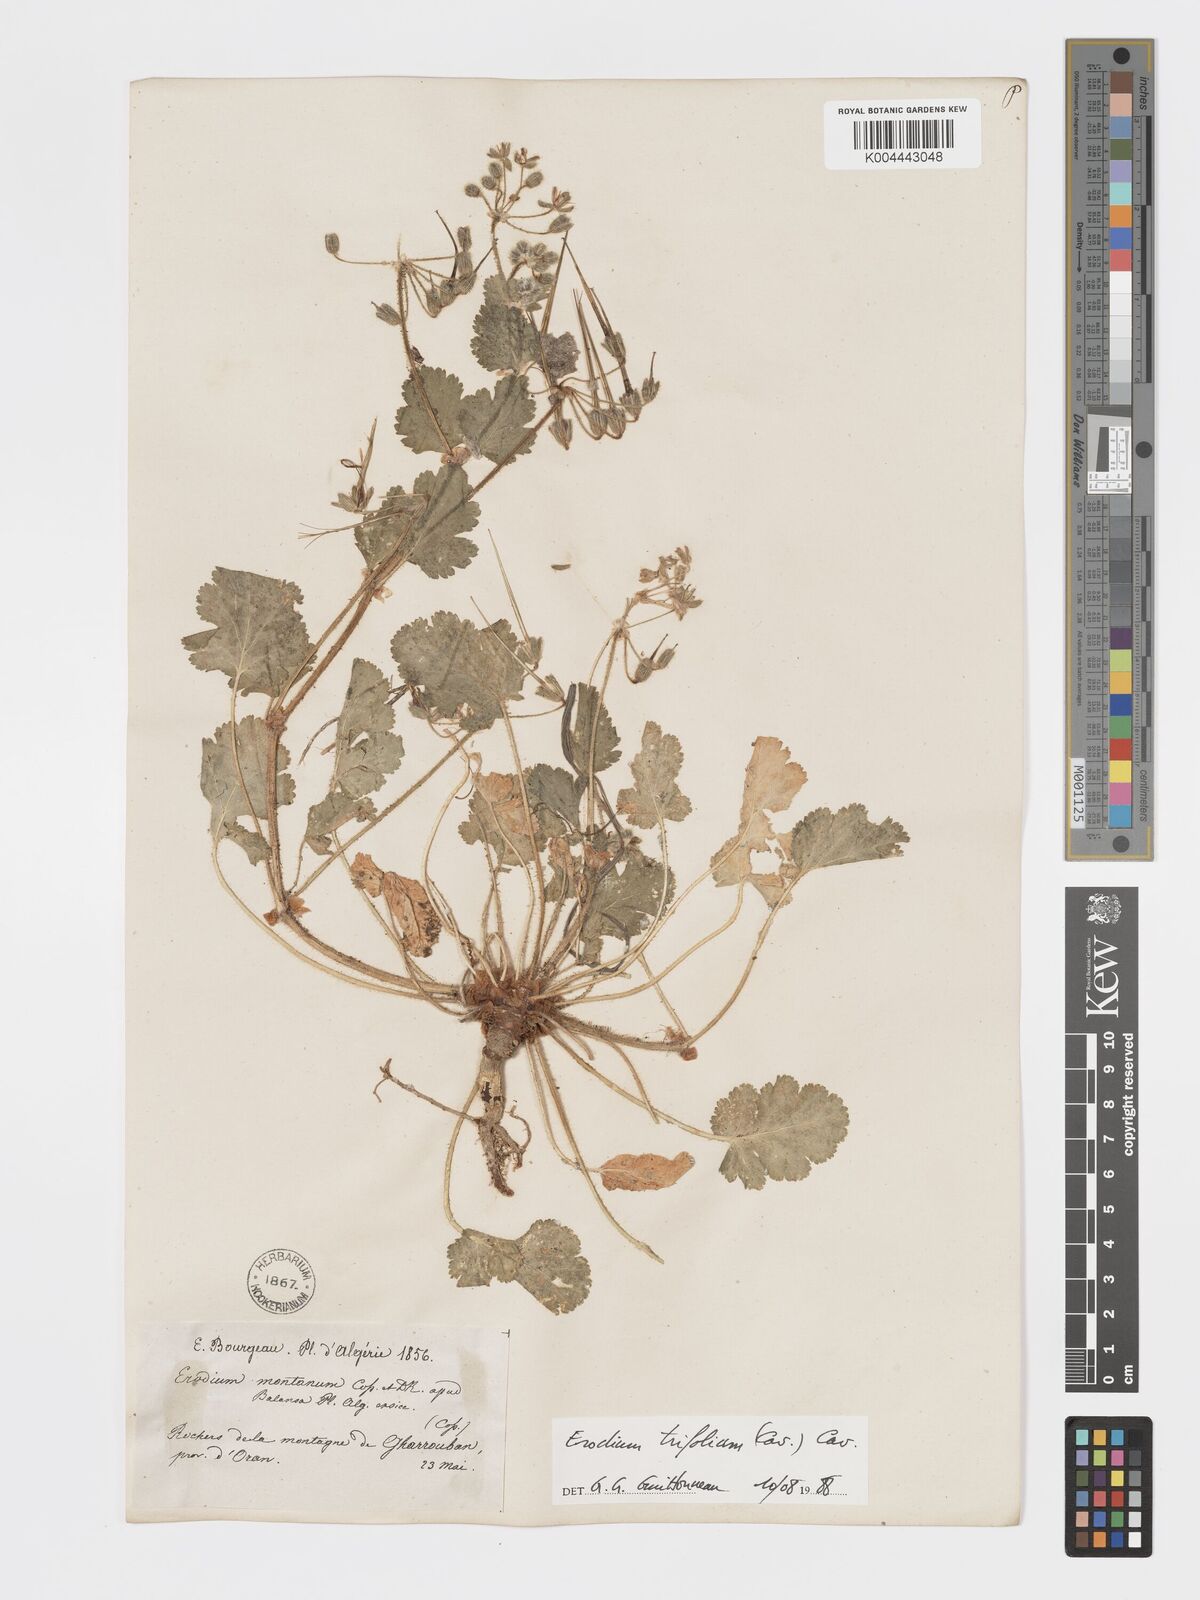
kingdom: Plantae
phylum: Tracheophyta
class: Magnoliopsida
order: Geraniales
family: Geraniaceae
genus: Erodium
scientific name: Erodium trifolium
